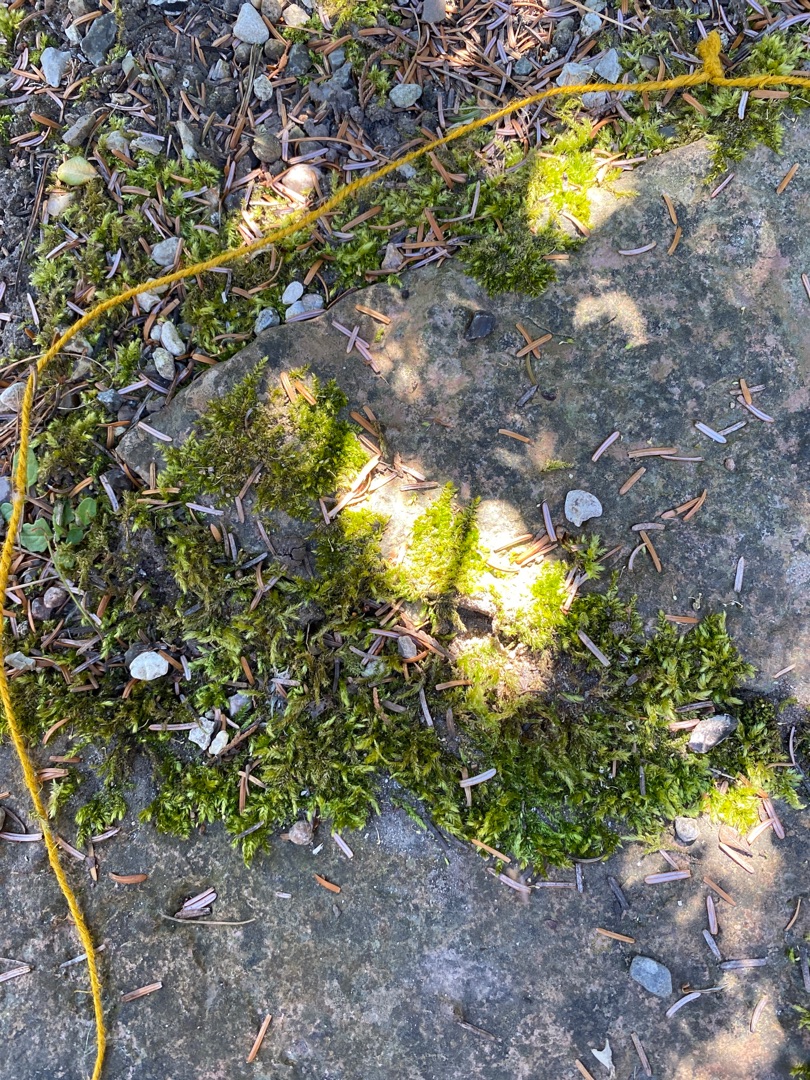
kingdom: Plantae
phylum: Bryophyta
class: Bryopsida
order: Hypnales
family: Brachytheciaceae
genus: Brachythecium
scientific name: Brachythecium rutabulum
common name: Almindelig kortkapsel
